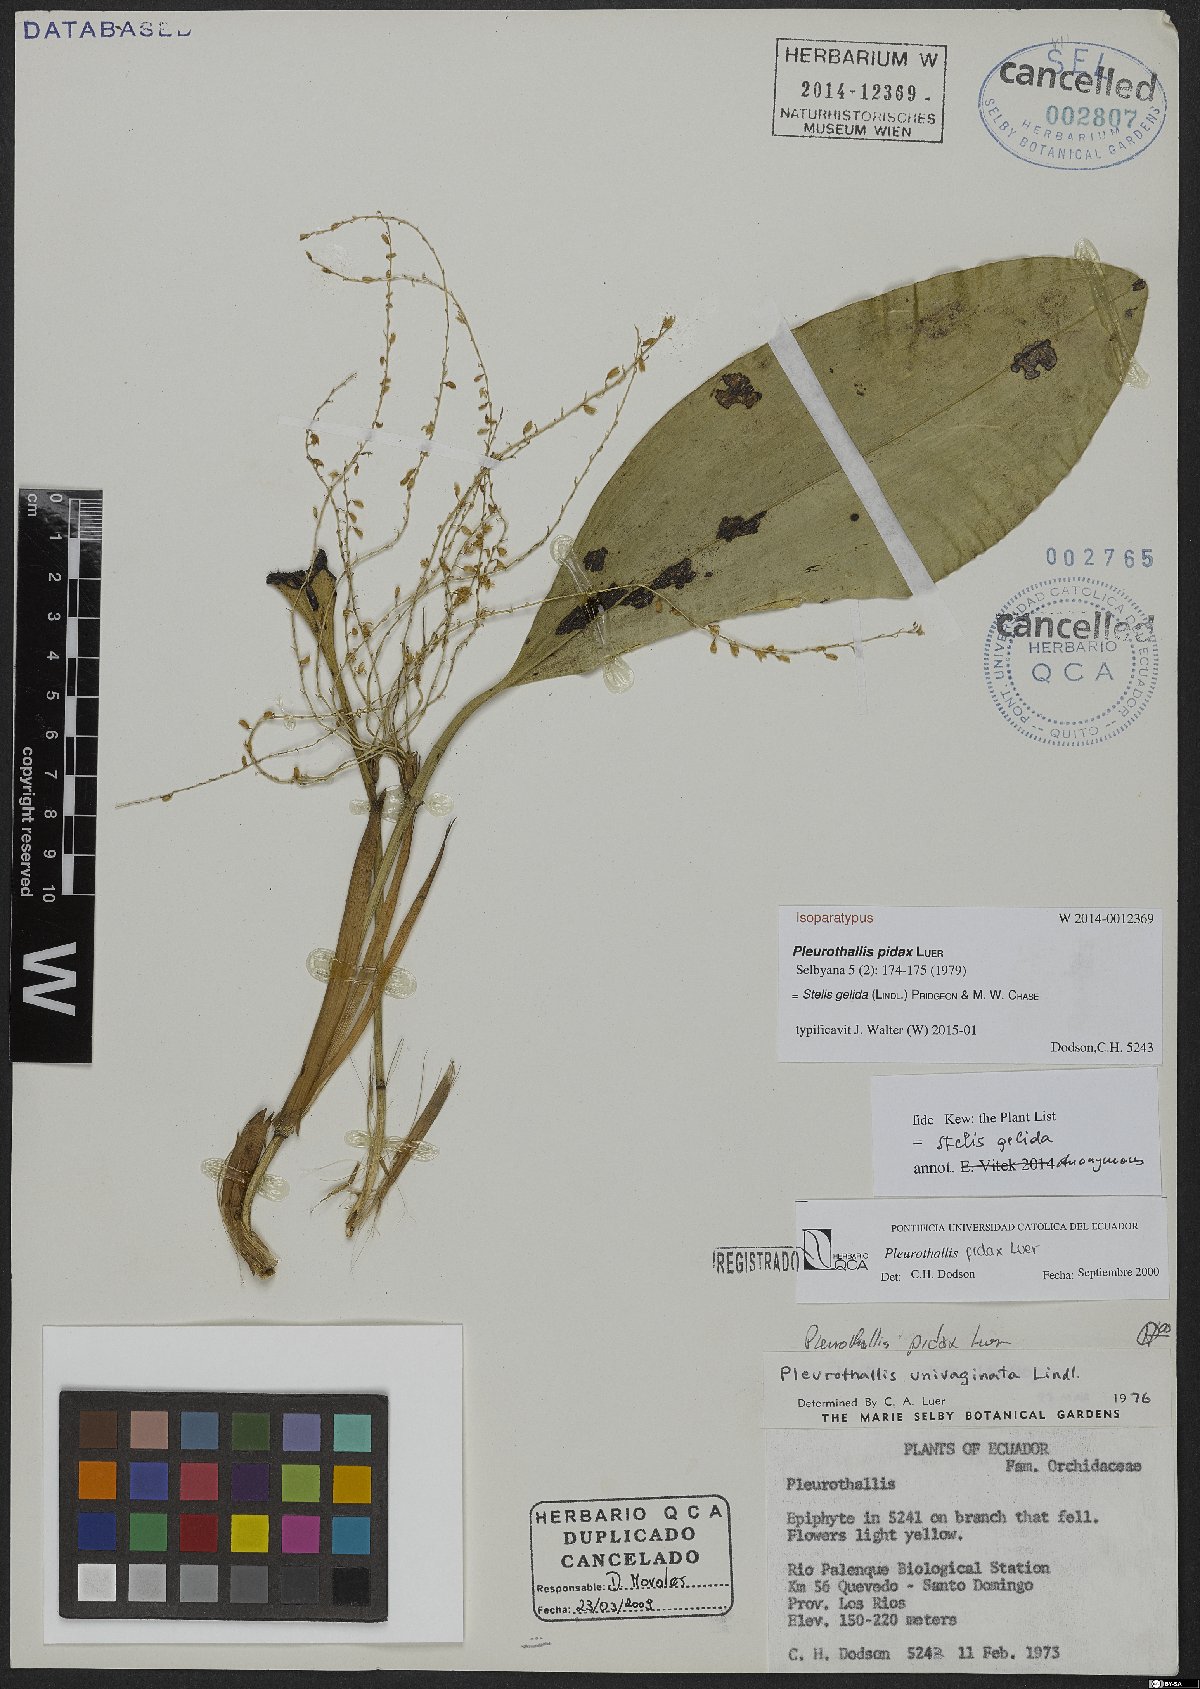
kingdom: Plantae
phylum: Tracheophyta
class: Liliopsida
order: Asparagales
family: Orchidaceae
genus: Stelis
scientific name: Stelis gelida
